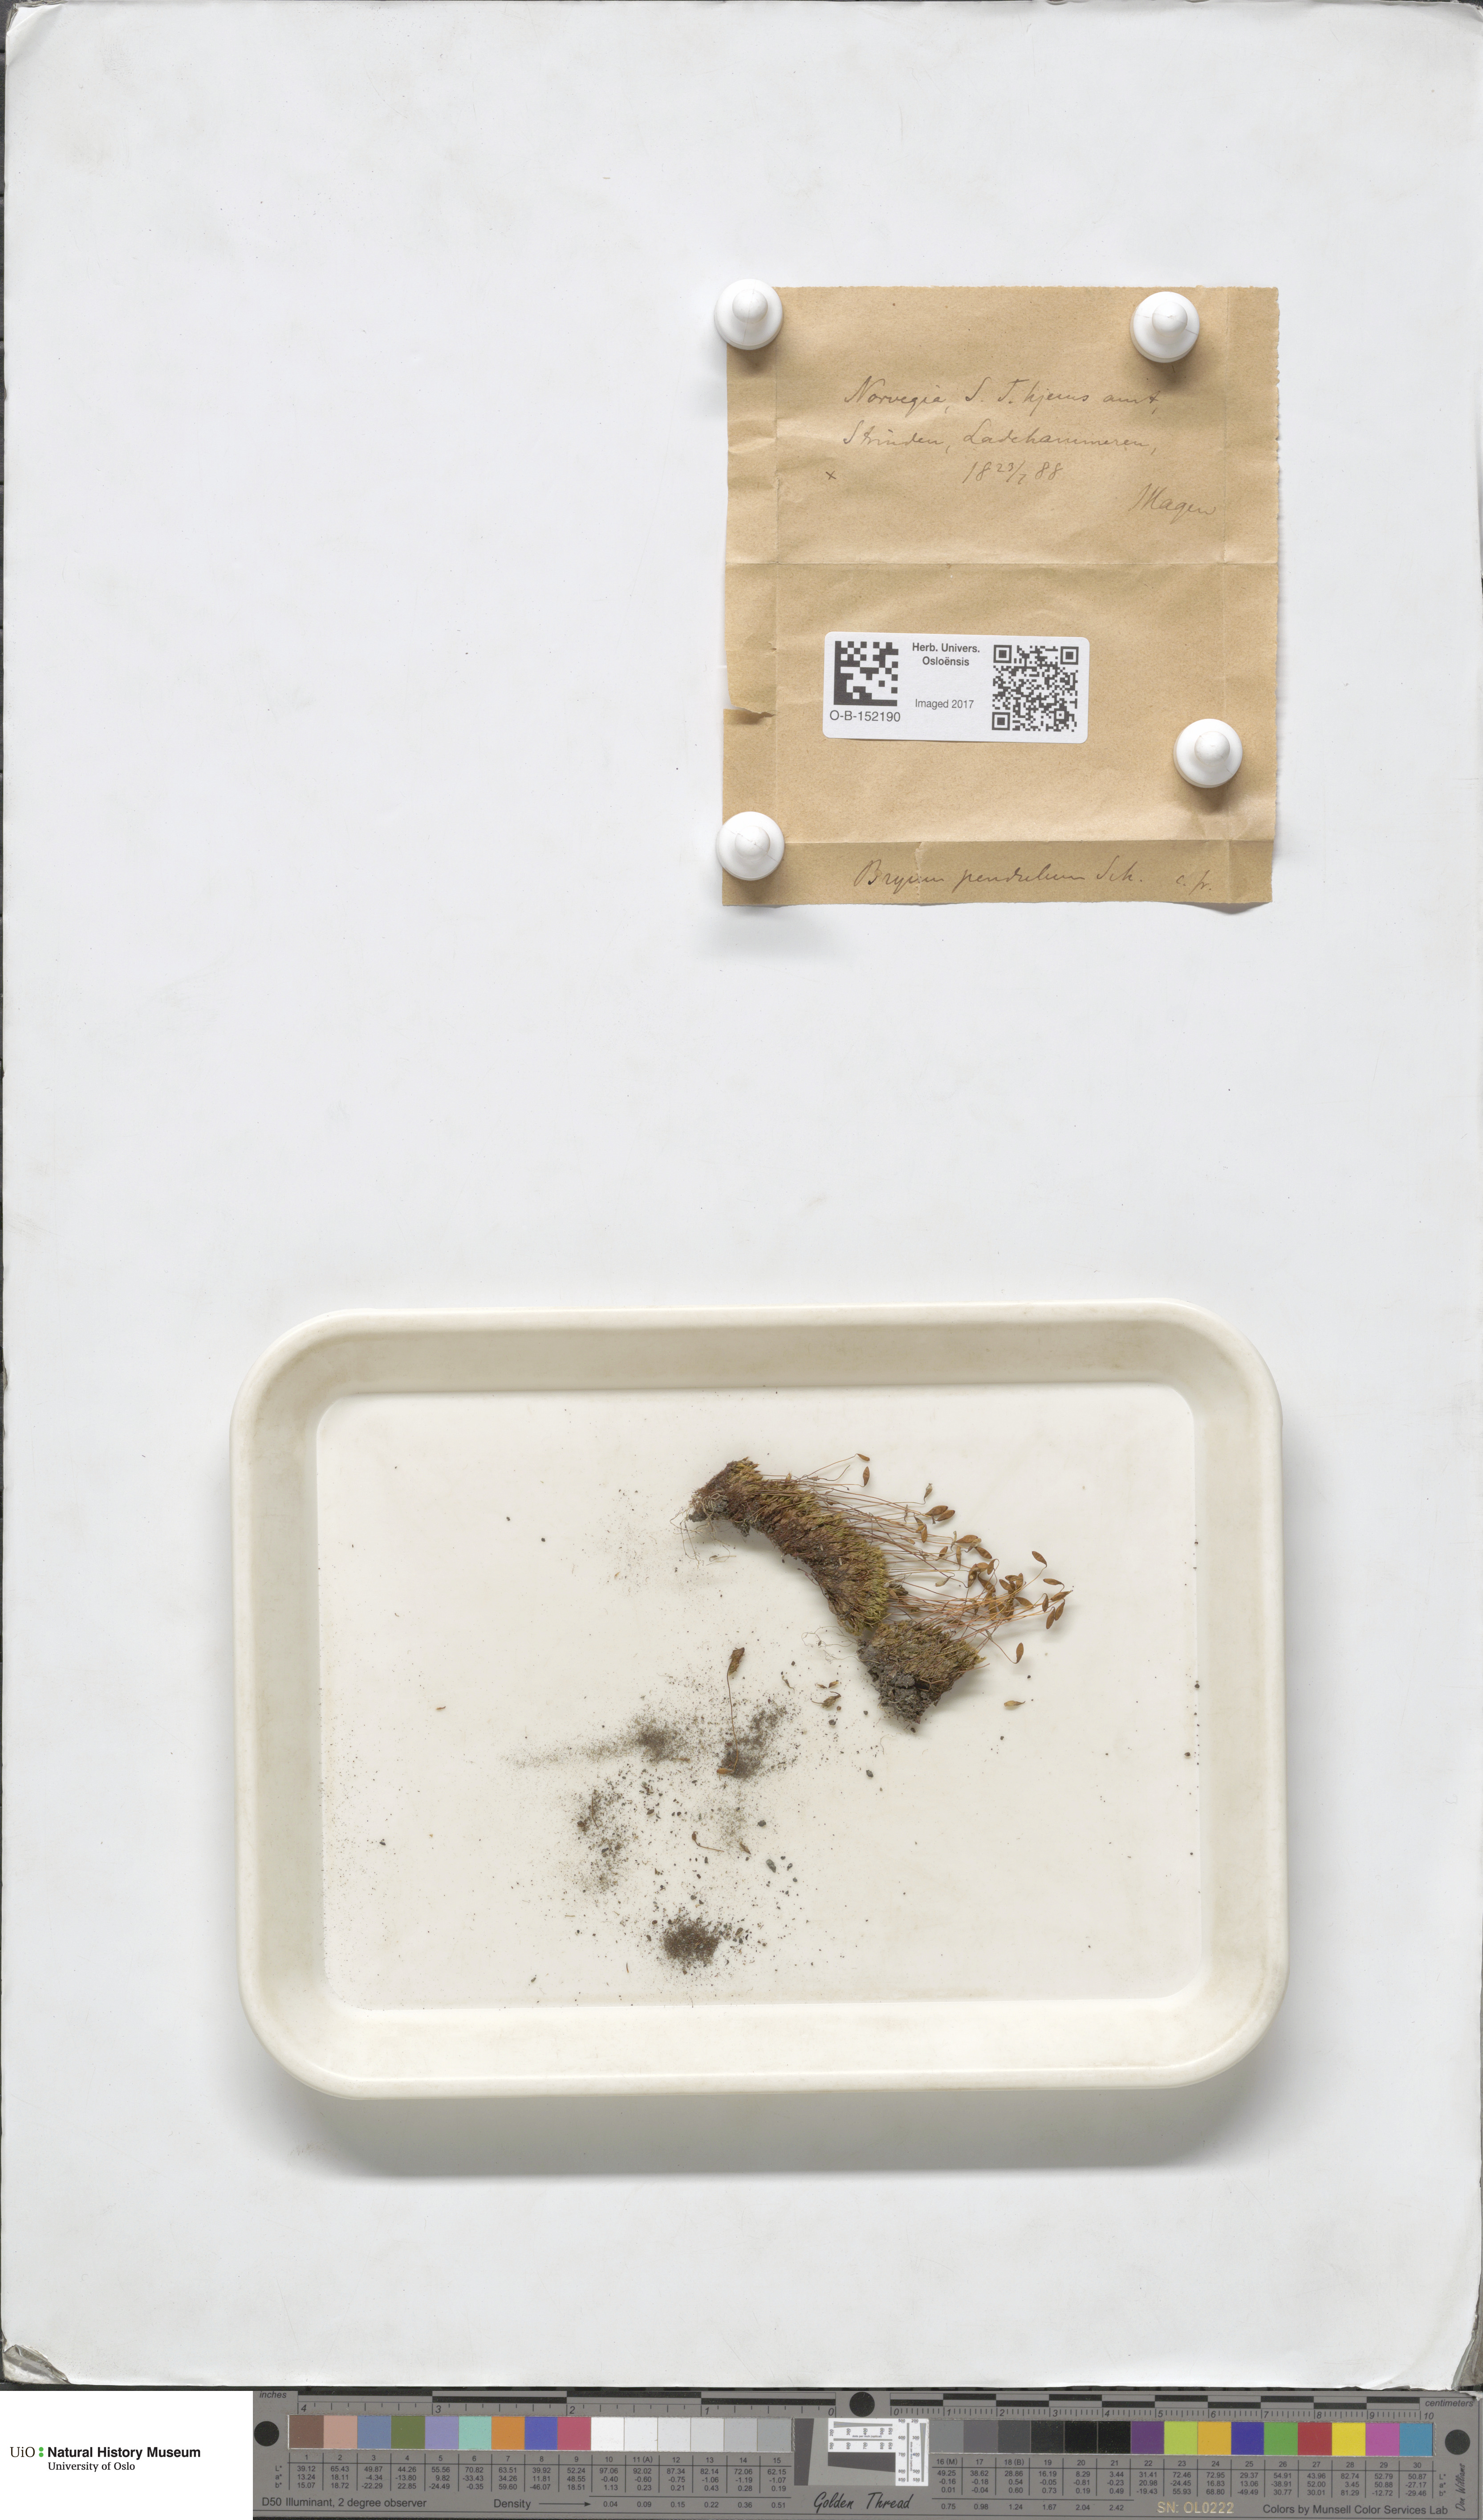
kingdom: Plantae
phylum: Bryophyta
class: Bryopsida
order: Bryales
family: Bryaceae
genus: Ptychostomum
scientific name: Ptychostomum compactum
